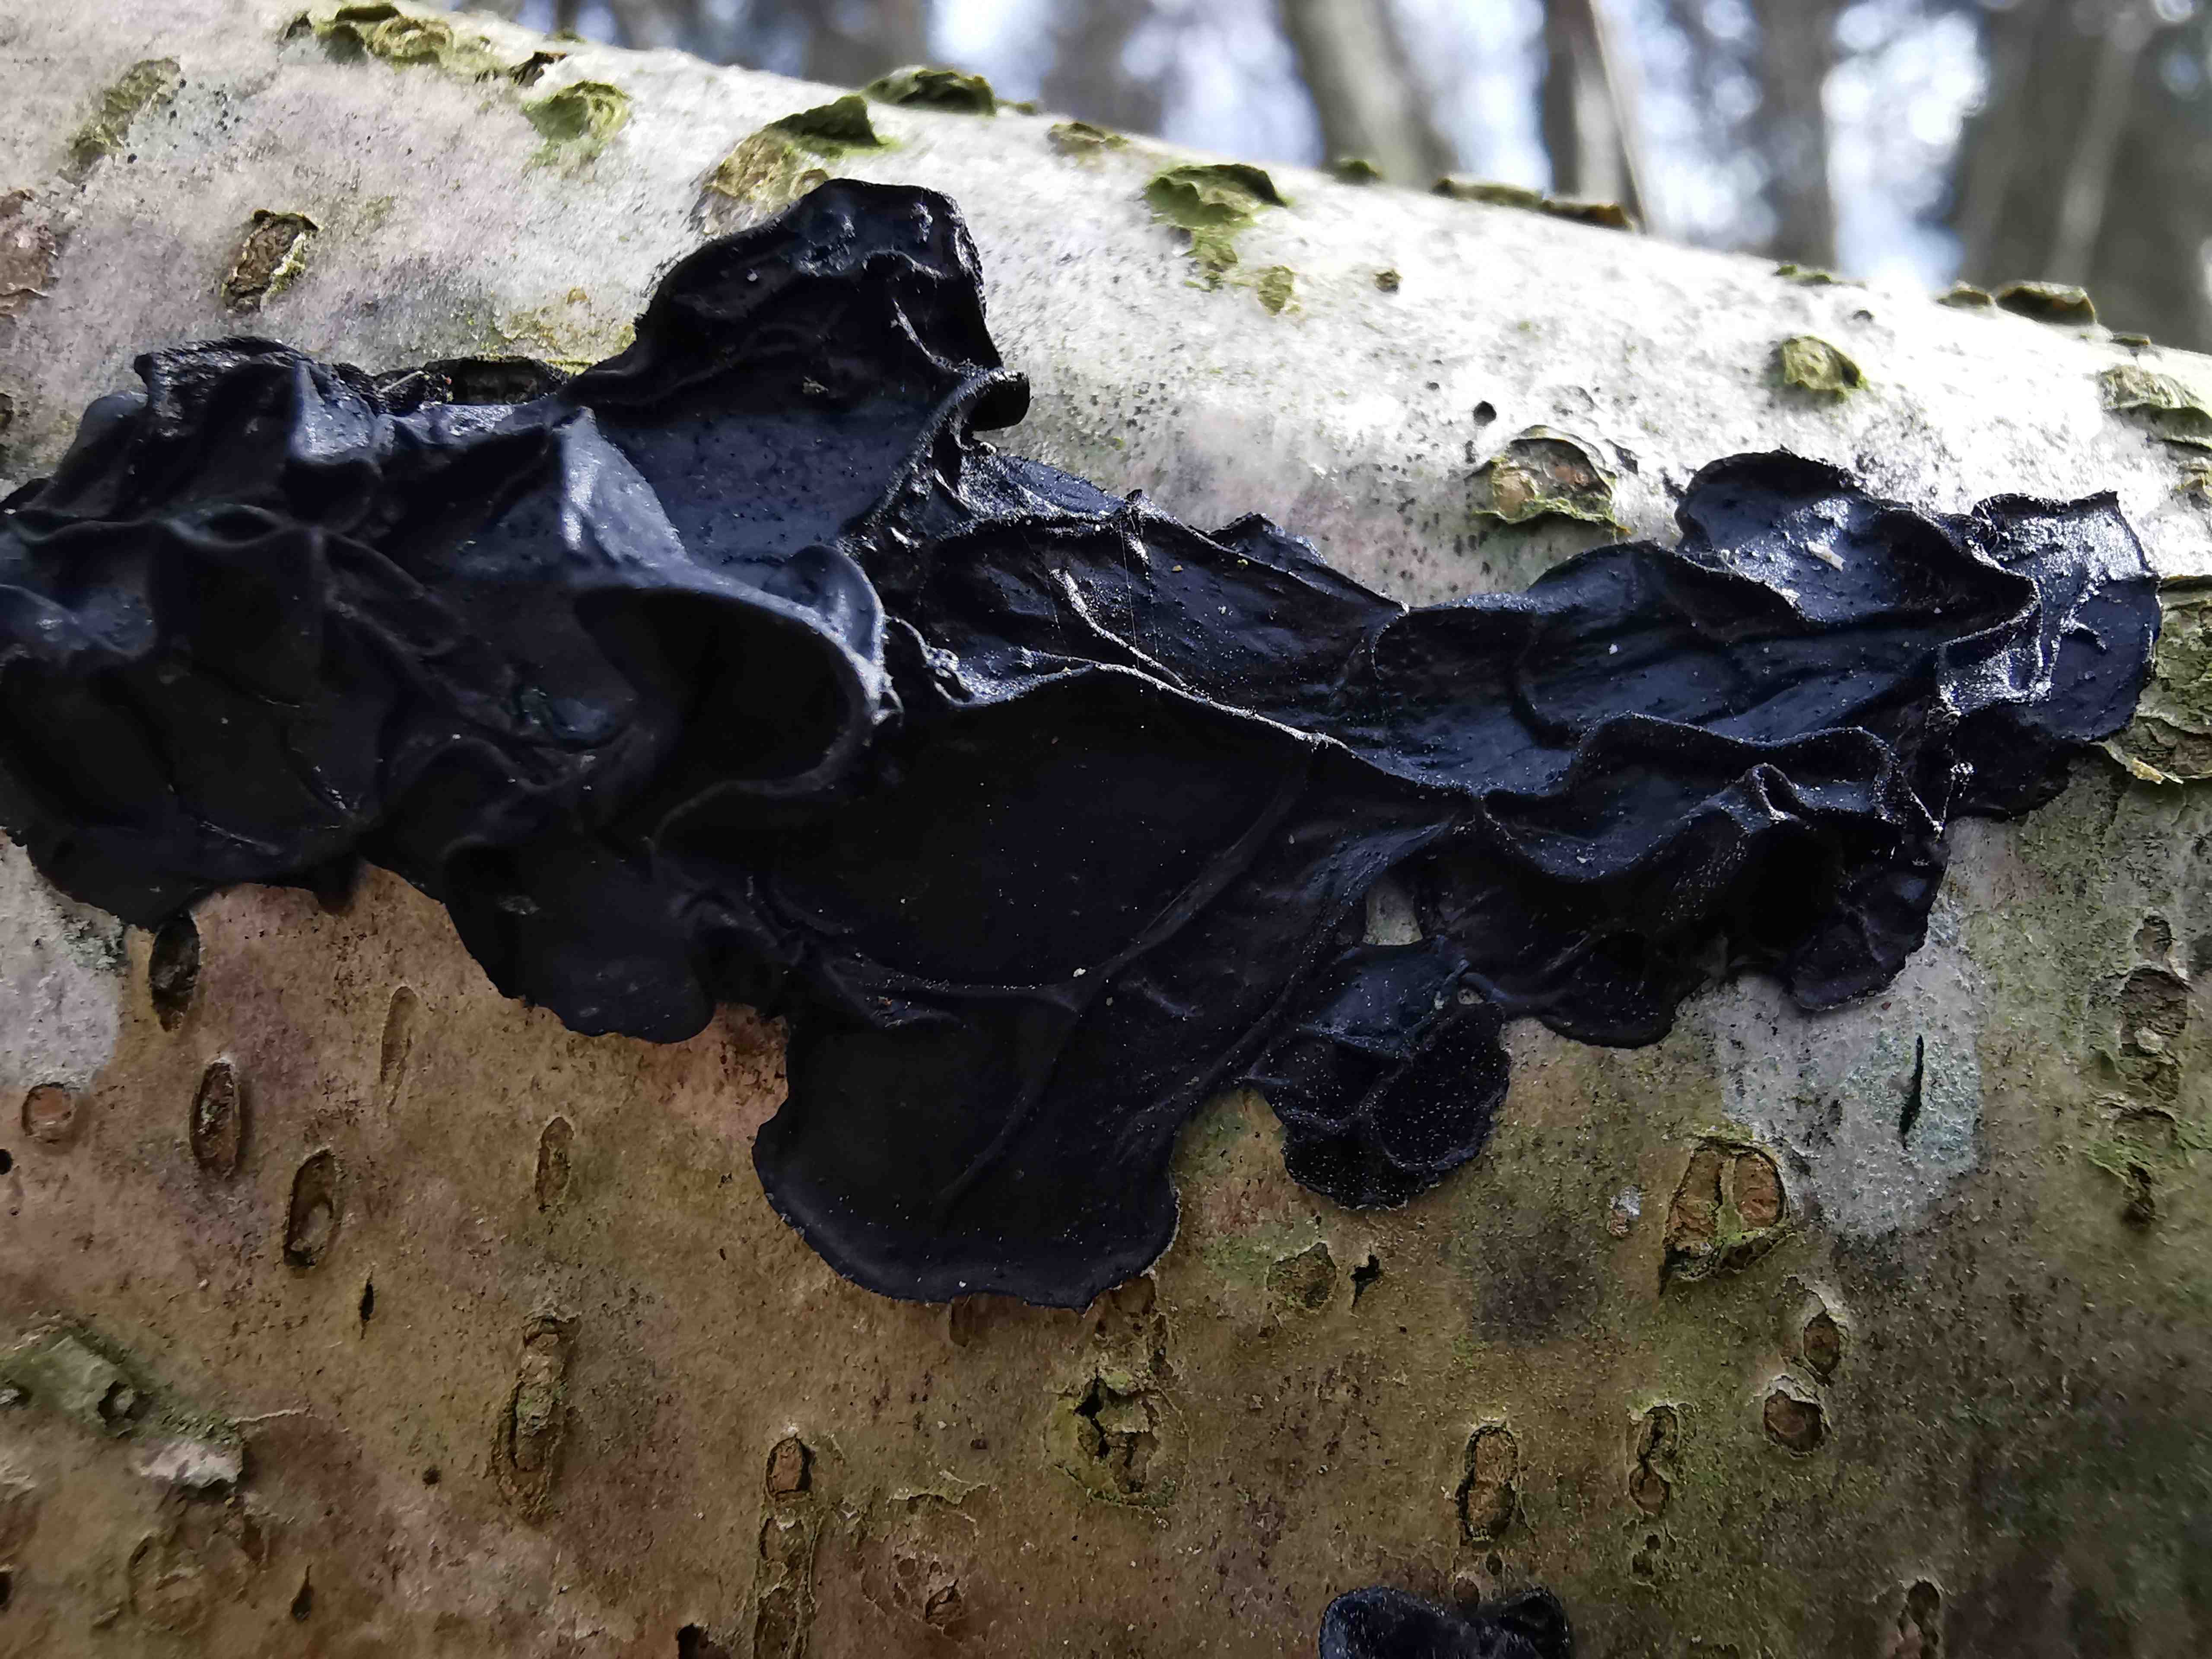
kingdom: Fungi
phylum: Basidiomycota
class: Agaricomycetes
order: Auriculariales
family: Auriculariaceae
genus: Exidia
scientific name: Exidia nigricans
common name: almindelig bævretop
